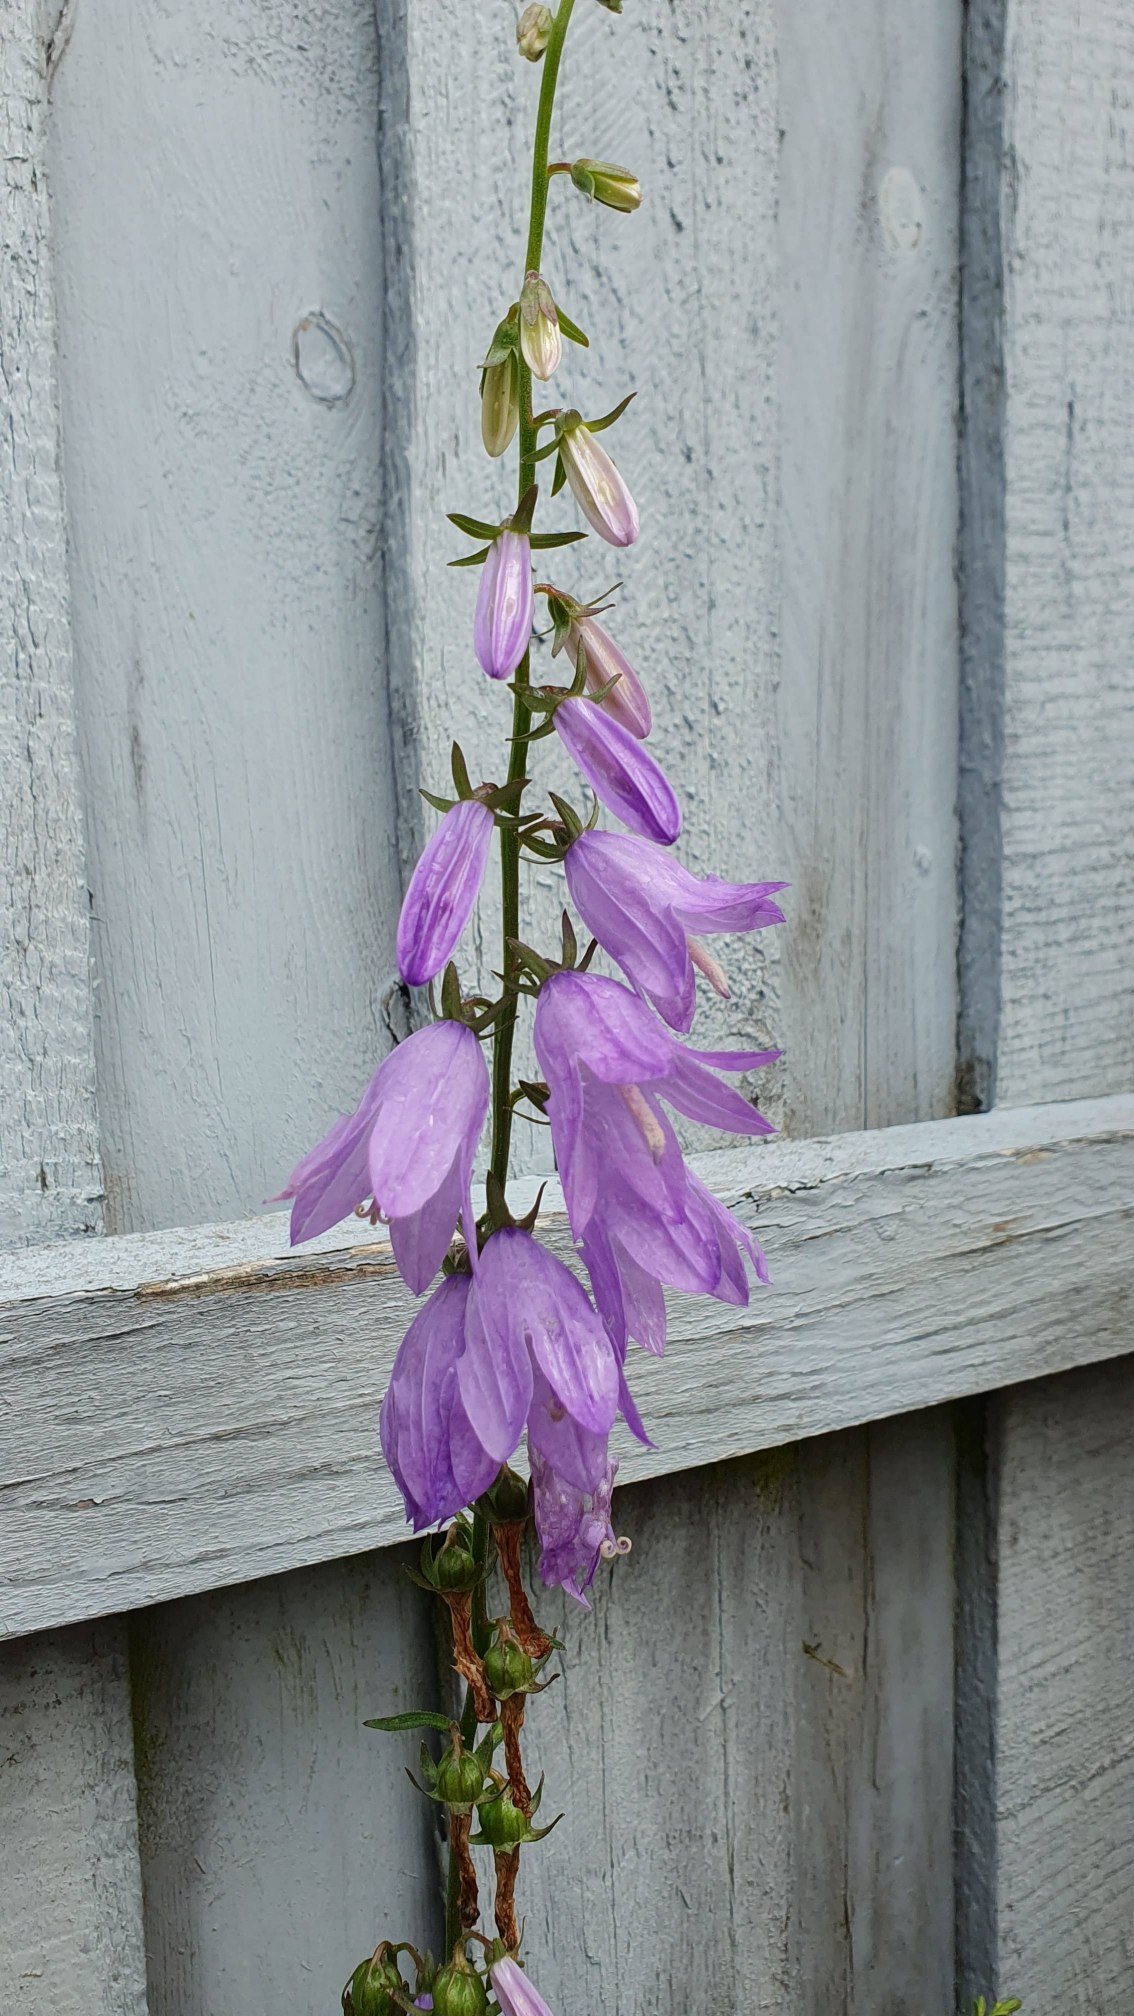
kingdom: Plantae
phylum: Tracheophyta
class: Magnoliopsida
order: Asterales
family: Campanulaceae
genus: Campanula
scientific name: Campanula rapunculoides
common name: Ensidig klokke
